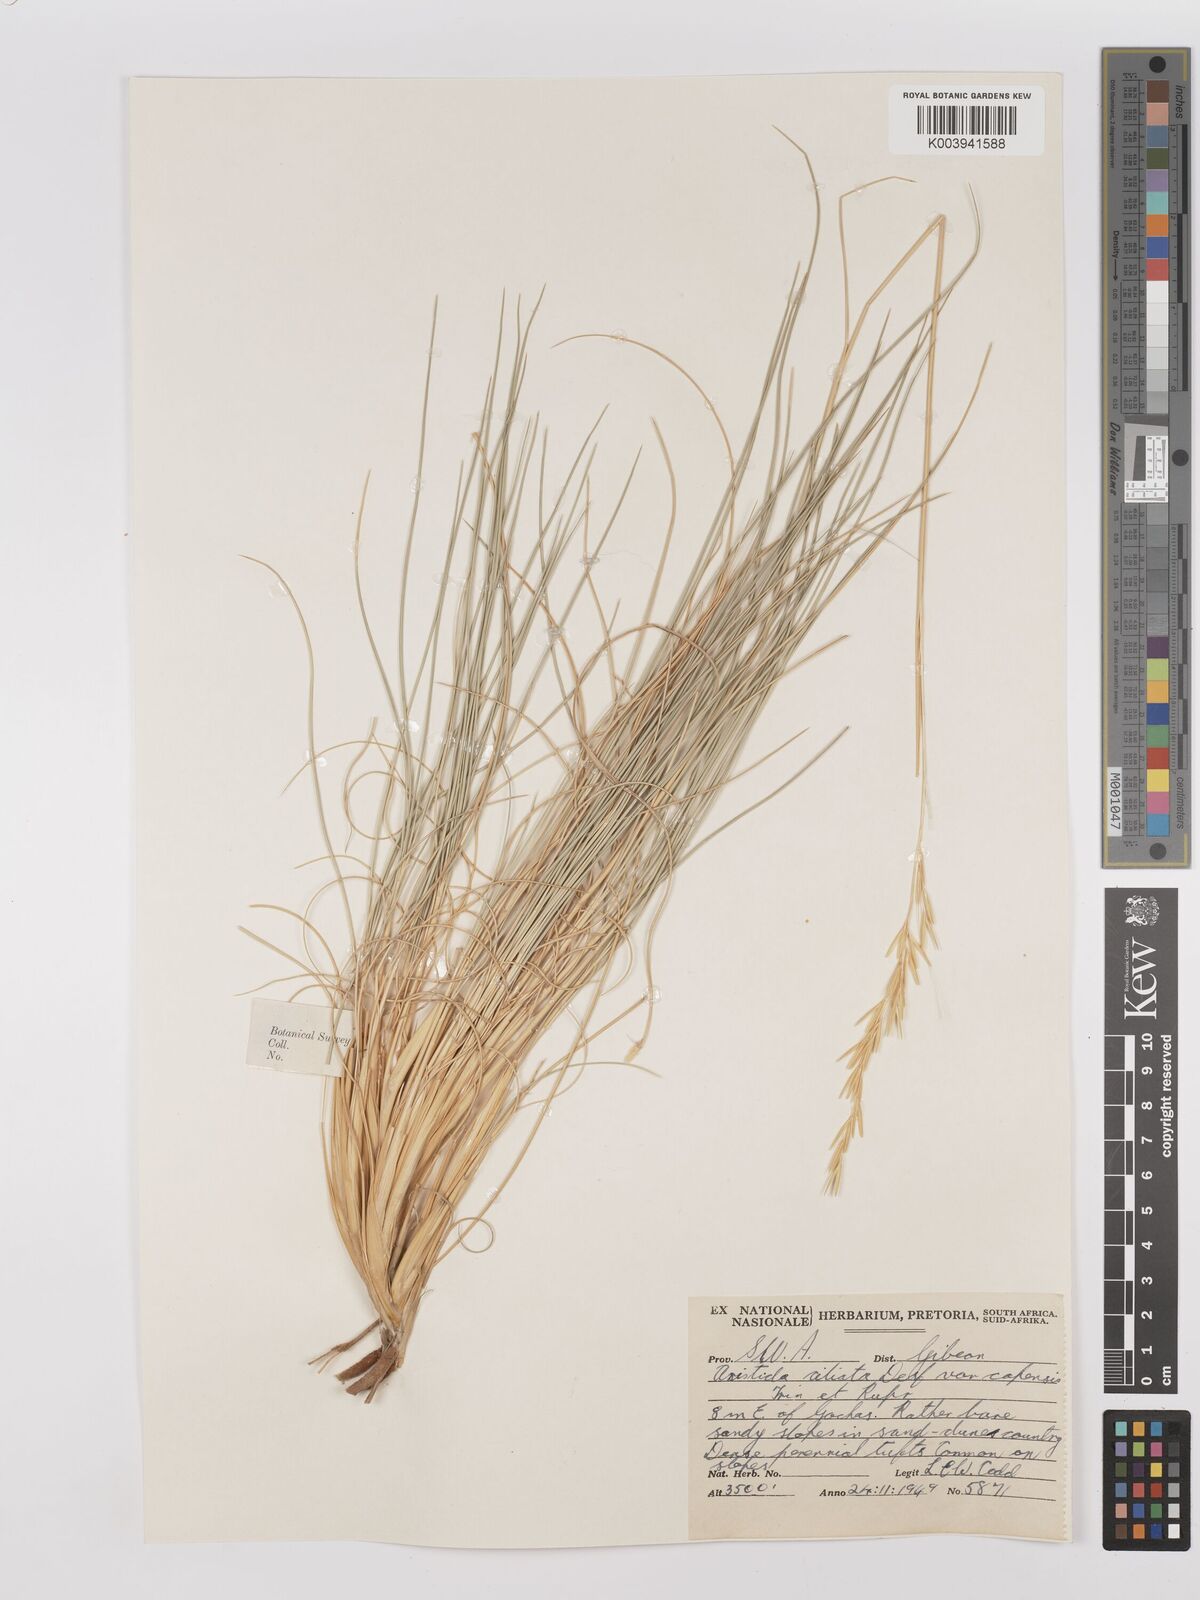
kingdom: Plantae
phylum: Tracheophyta
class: Liliopsida
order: Poales
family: Poaceae
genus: Stipagrostis
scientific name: Stipagrostis ciliata
